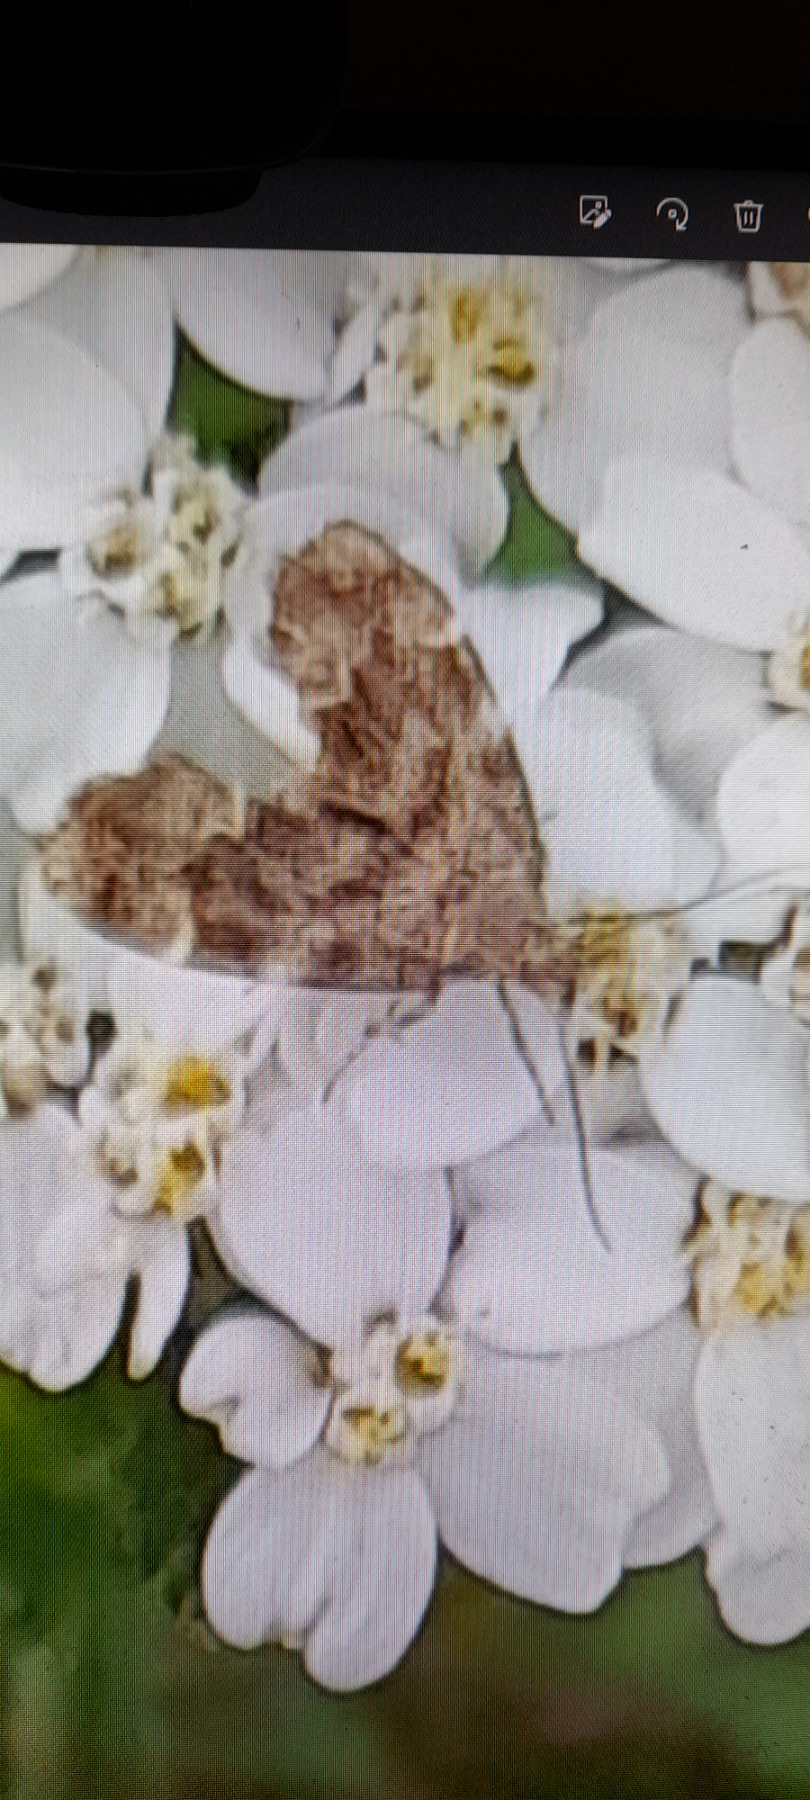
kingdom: Animalia
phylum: Arthropoda
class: Insecta
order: Lepidoptera
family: Choreutidae
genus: Anthophila
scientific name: Anthophila fabriciana
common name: Bredvinget nældevikler
